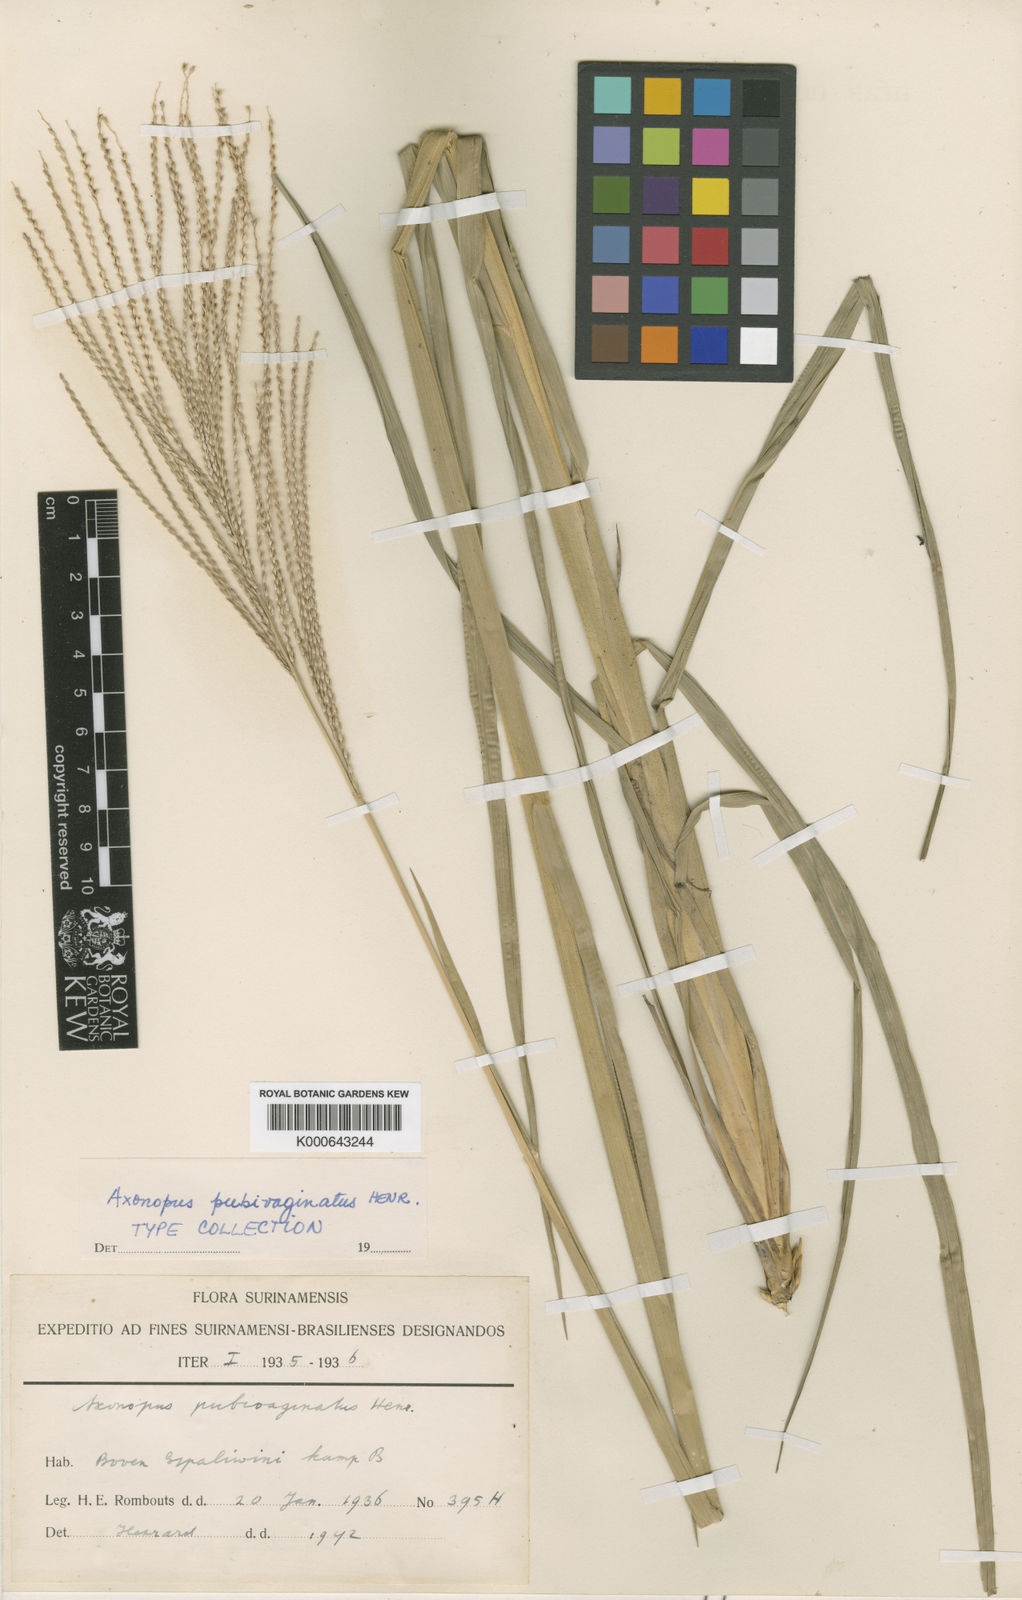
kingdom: Plantae
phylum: Tracheophyta
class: Liliopsida
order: Poales
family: Poaceae
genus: Axonopus
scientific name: Axonopus pubivaginatus
